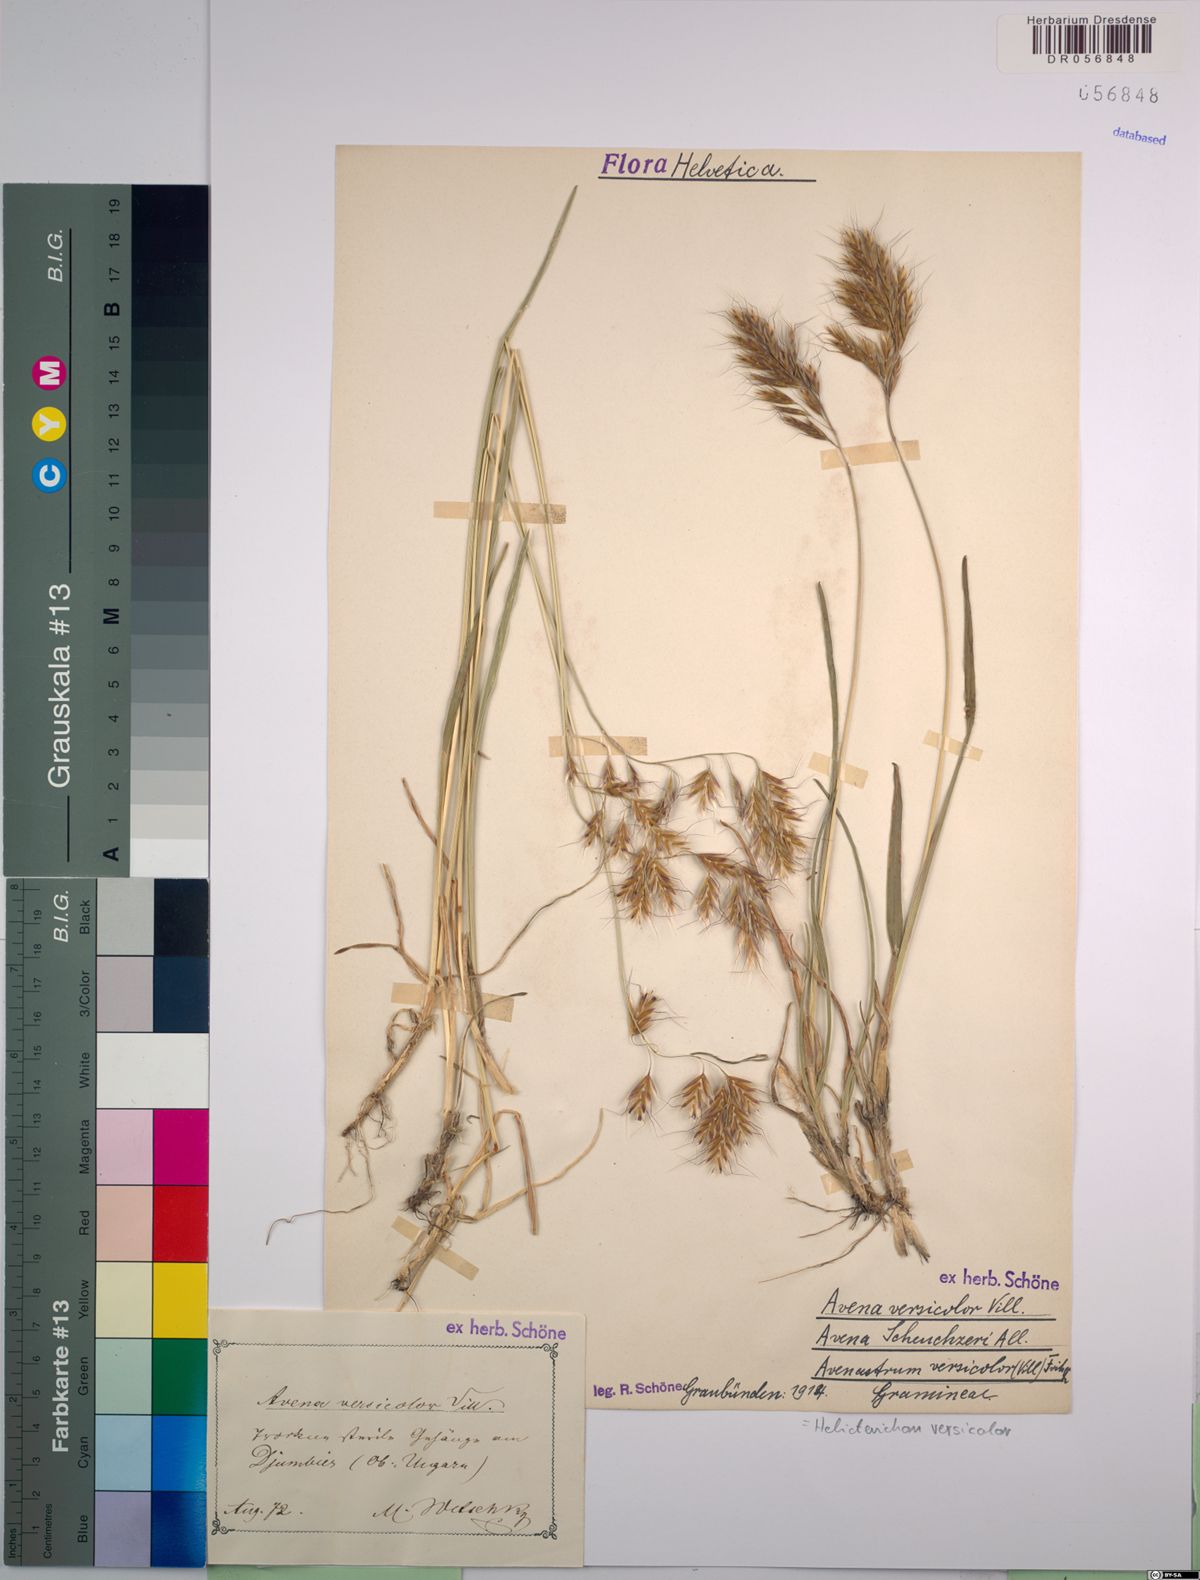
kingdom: Plantae
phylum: Tracheophyta
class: Liliopsida
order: Poales
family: Poaceae
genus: Helictochloa
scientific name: Helictochloa versicolor
